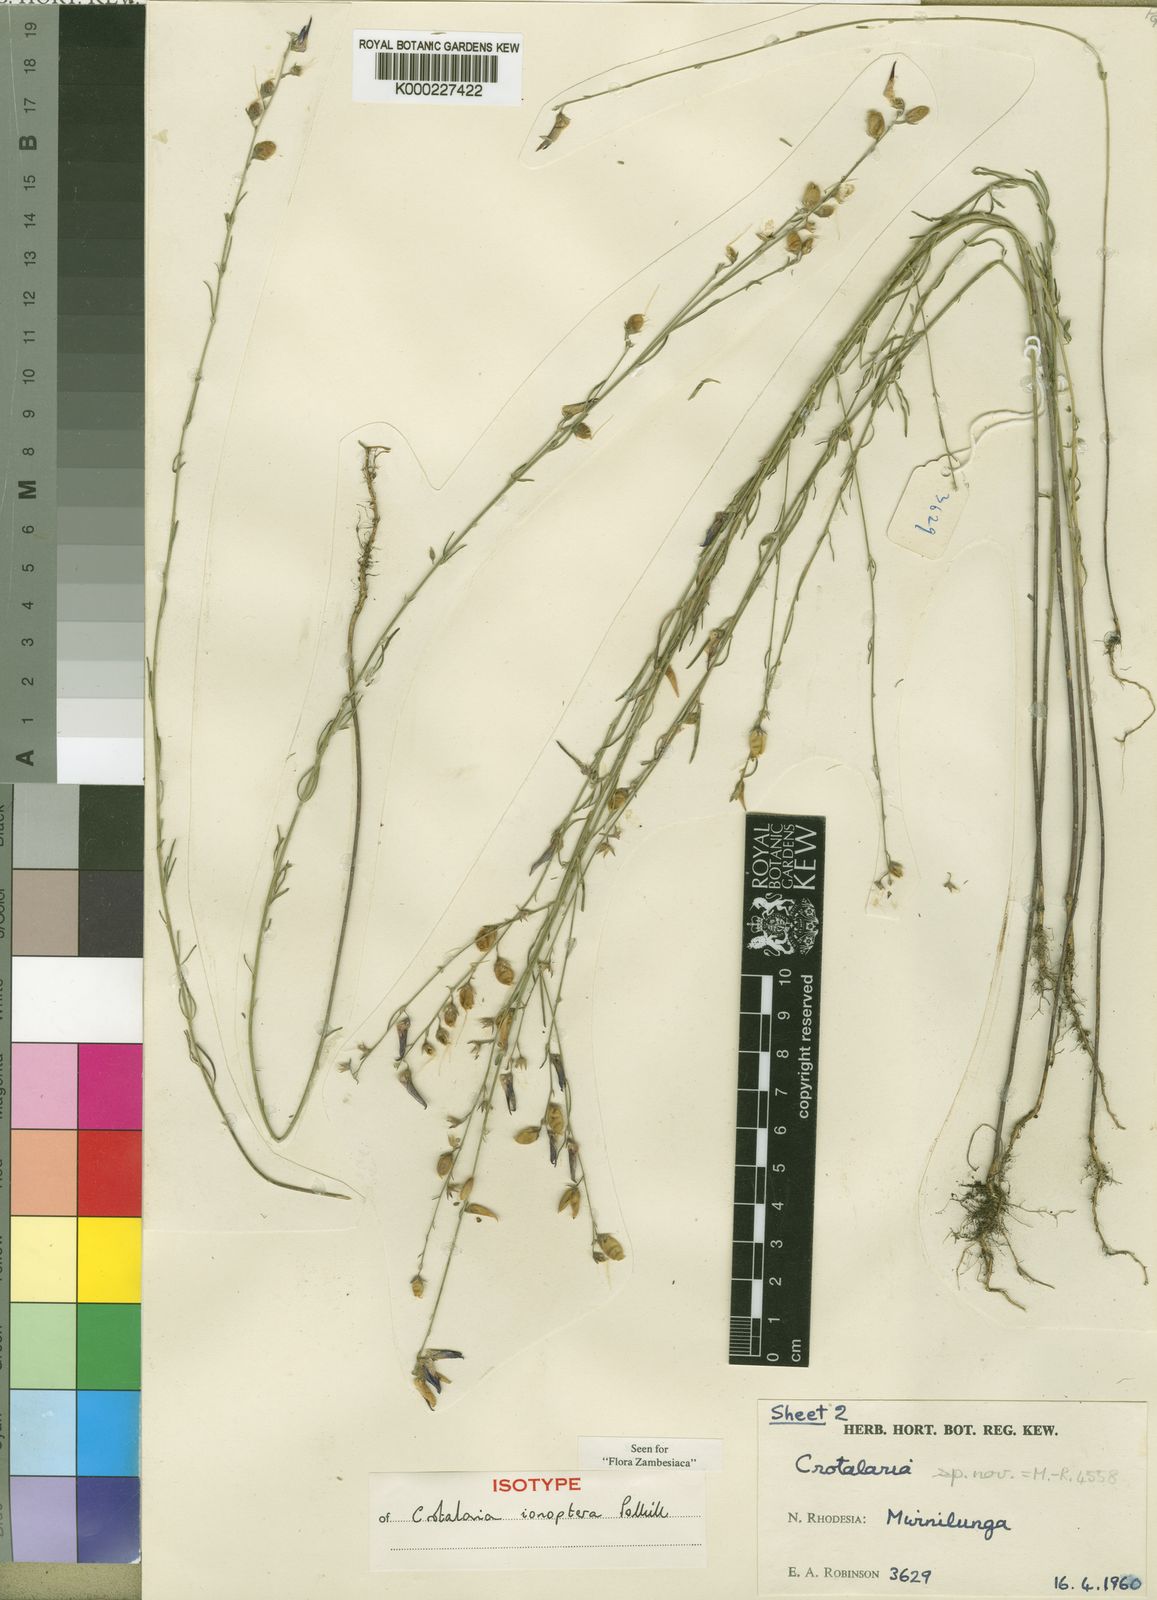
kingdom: Plantae
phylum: Tracheophyta
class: Magnoliopsida
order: Fabales
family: Fabaceae
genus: Crotalaria
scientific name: Crotalaria ionoptera
